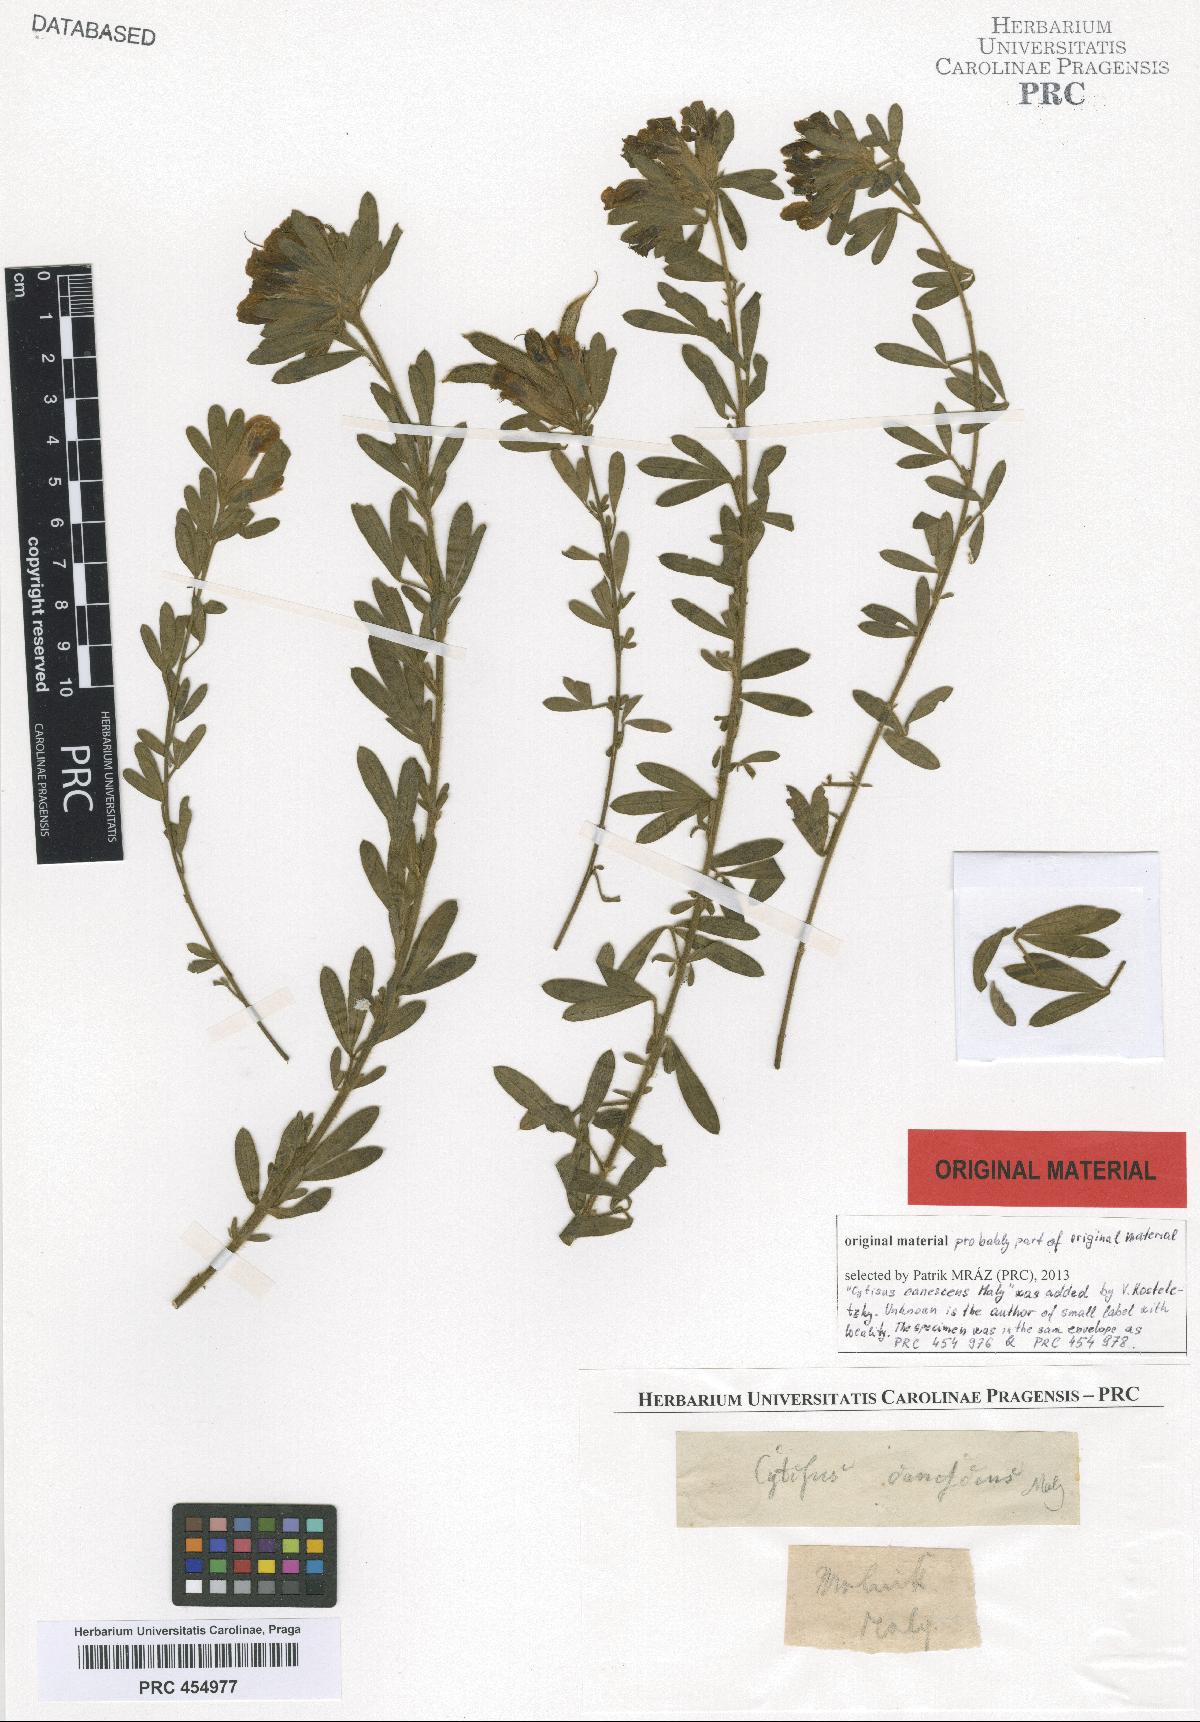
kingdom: Plantae
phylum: Tracheophyta
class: Magnoliopsida
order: Fabales
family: Fabaceae
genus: Chamaecytisus
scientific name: Chamaecytisus austriacus
